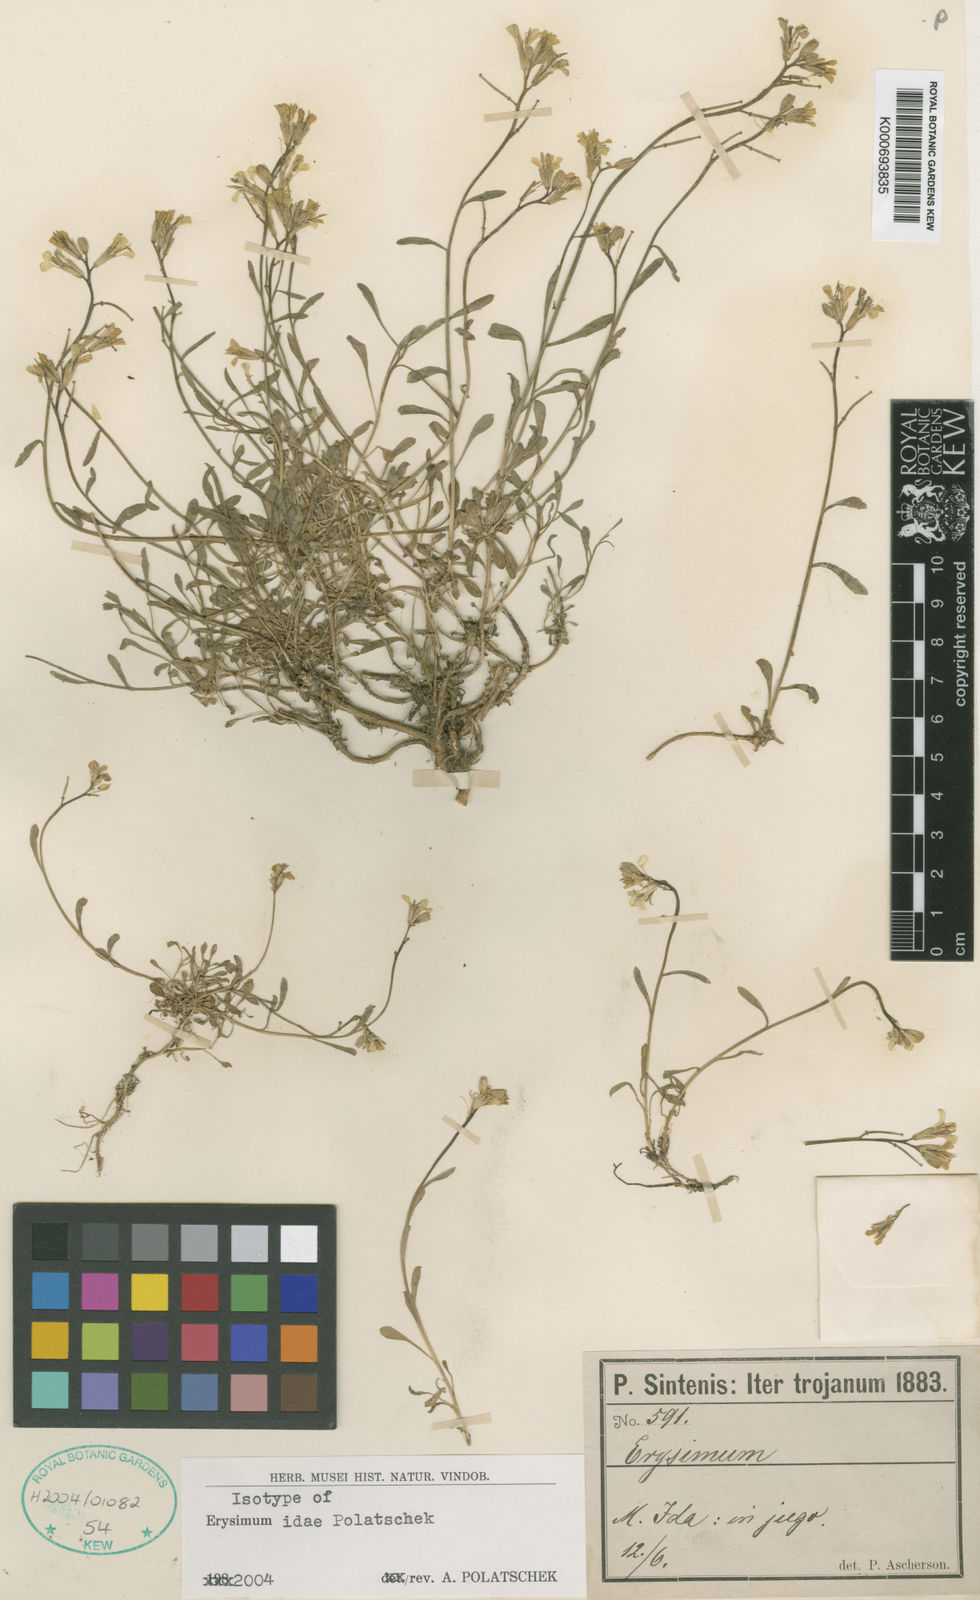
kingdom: Plantae
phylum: Tracheophyta
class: Magnoliopsida
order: Brassicales
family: Brassicaceae
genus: Erysimum
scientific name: Erysimum idae
